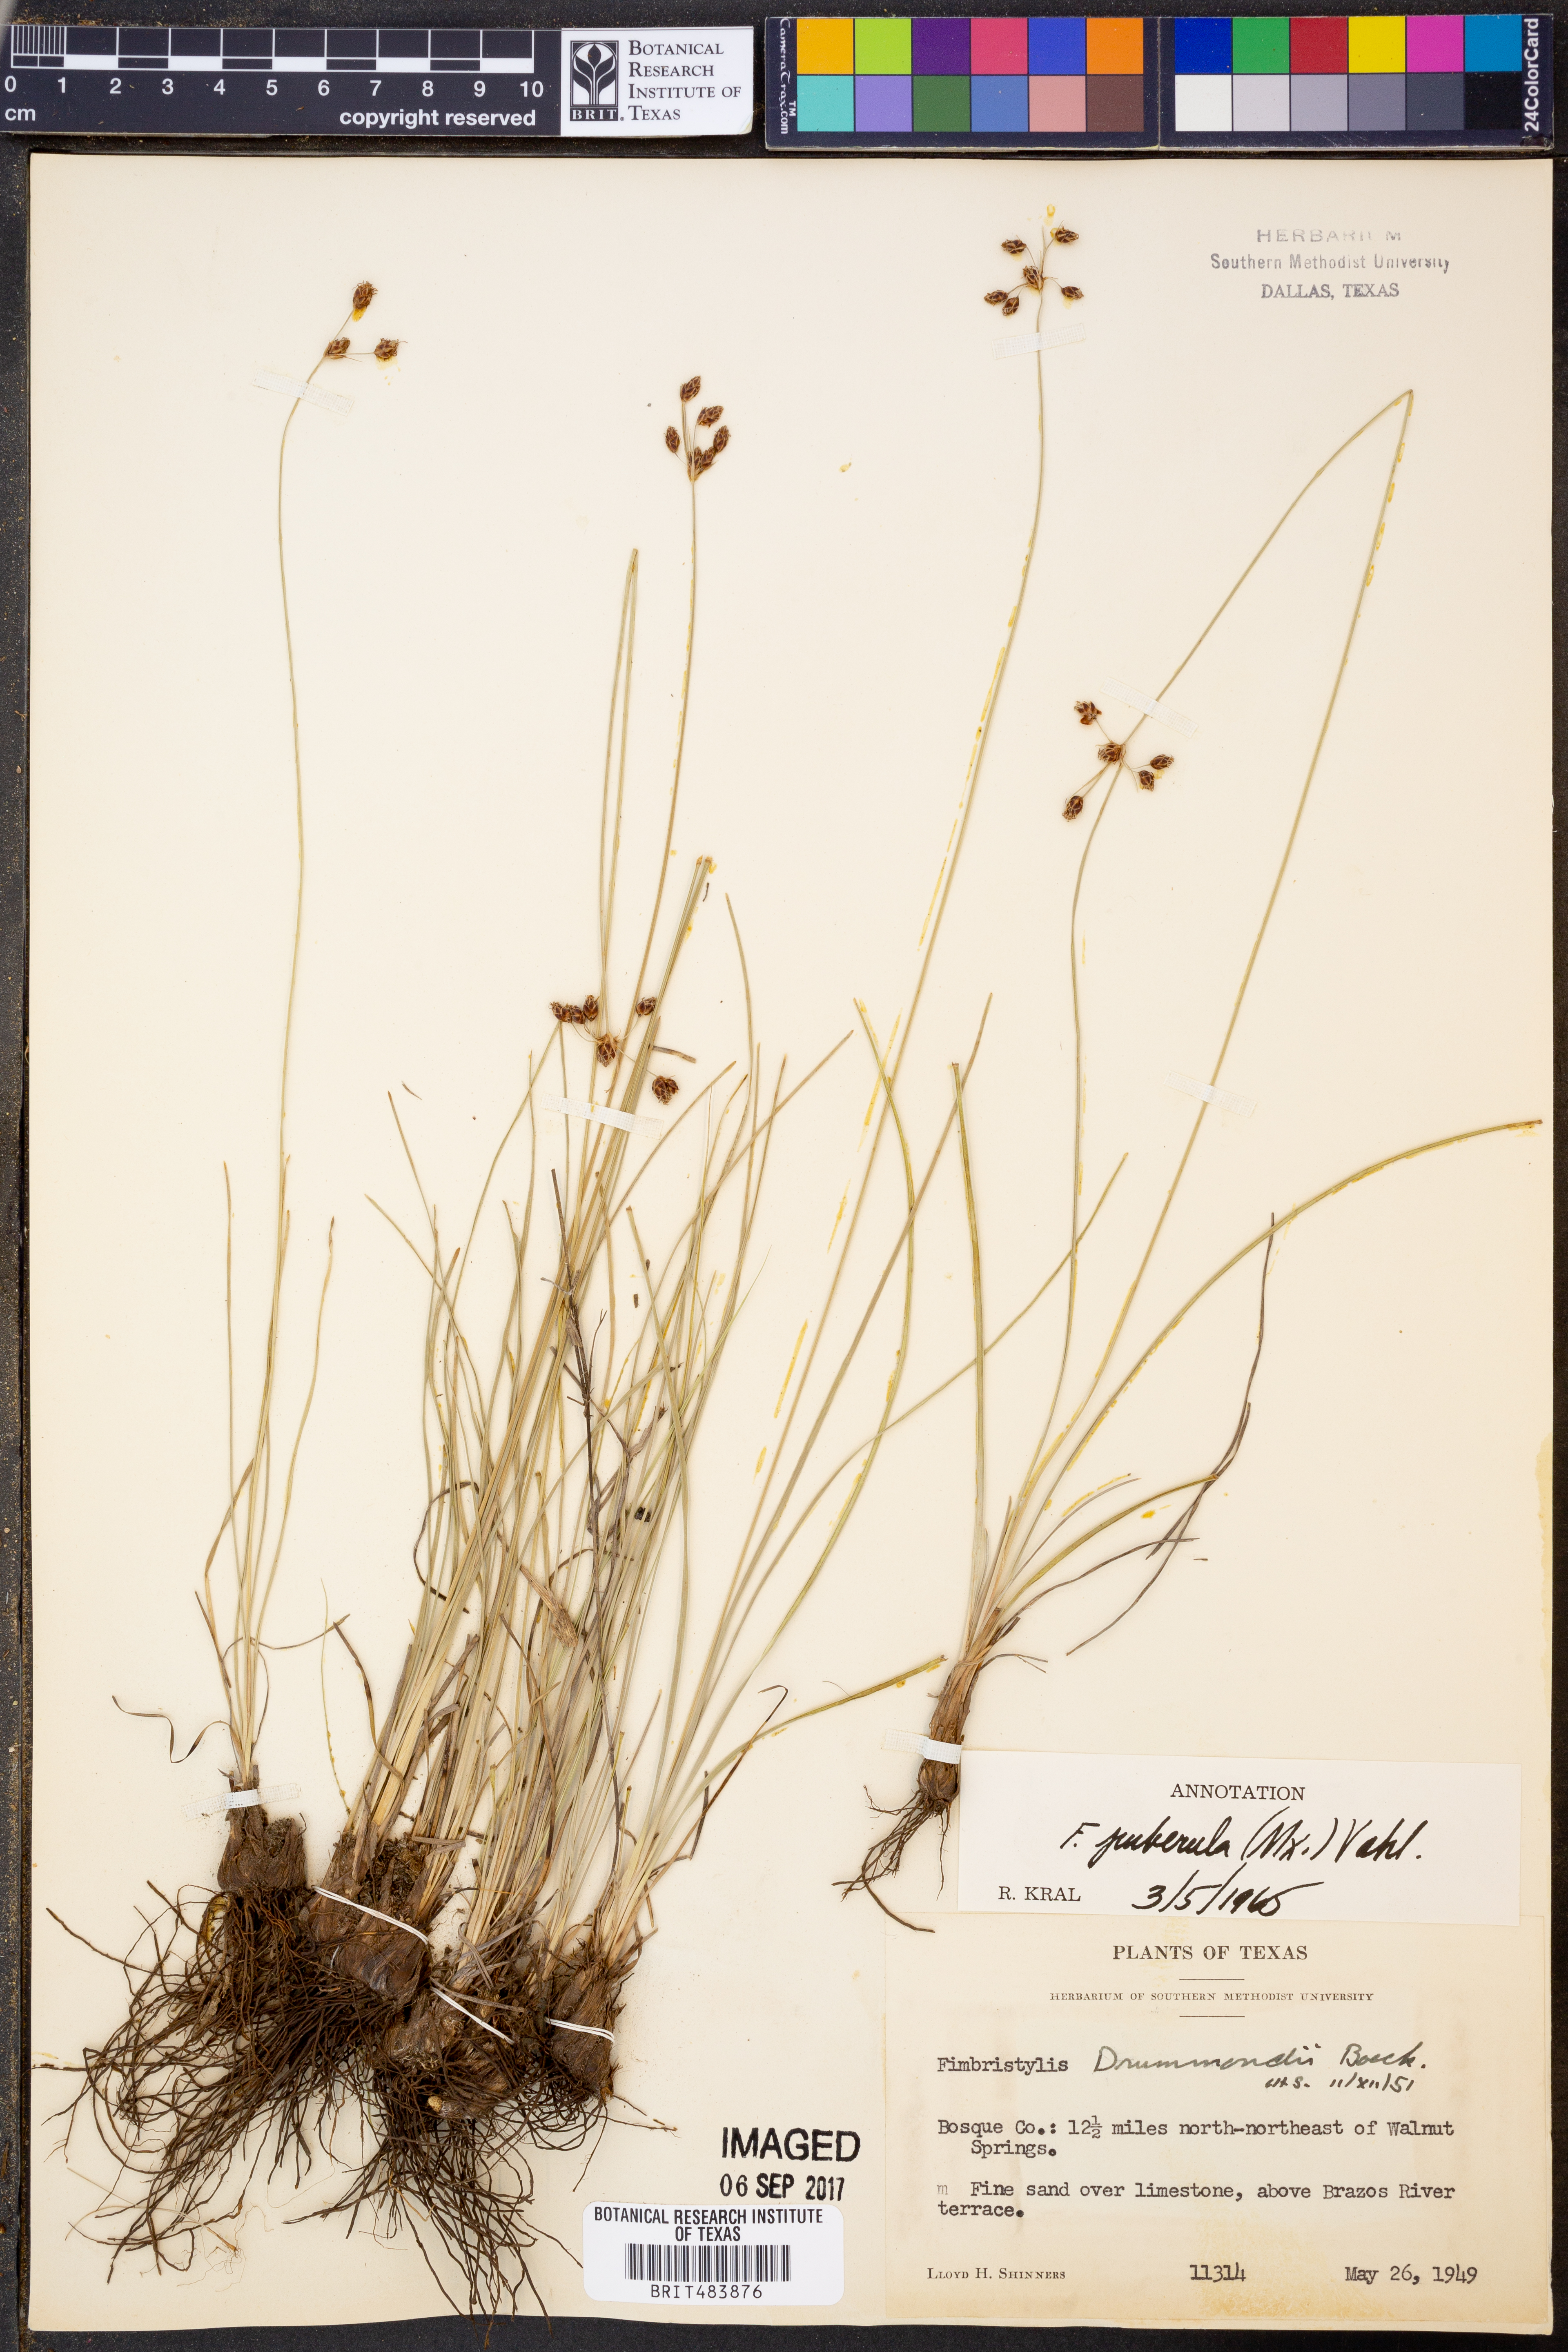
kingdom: Plantae
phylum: Tracheophyta
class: Liliopsida
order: Poales
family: Cyperaceae
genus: Fimbristylis
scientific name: Fimbristylis puberula
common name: Hairy fimbristylis
